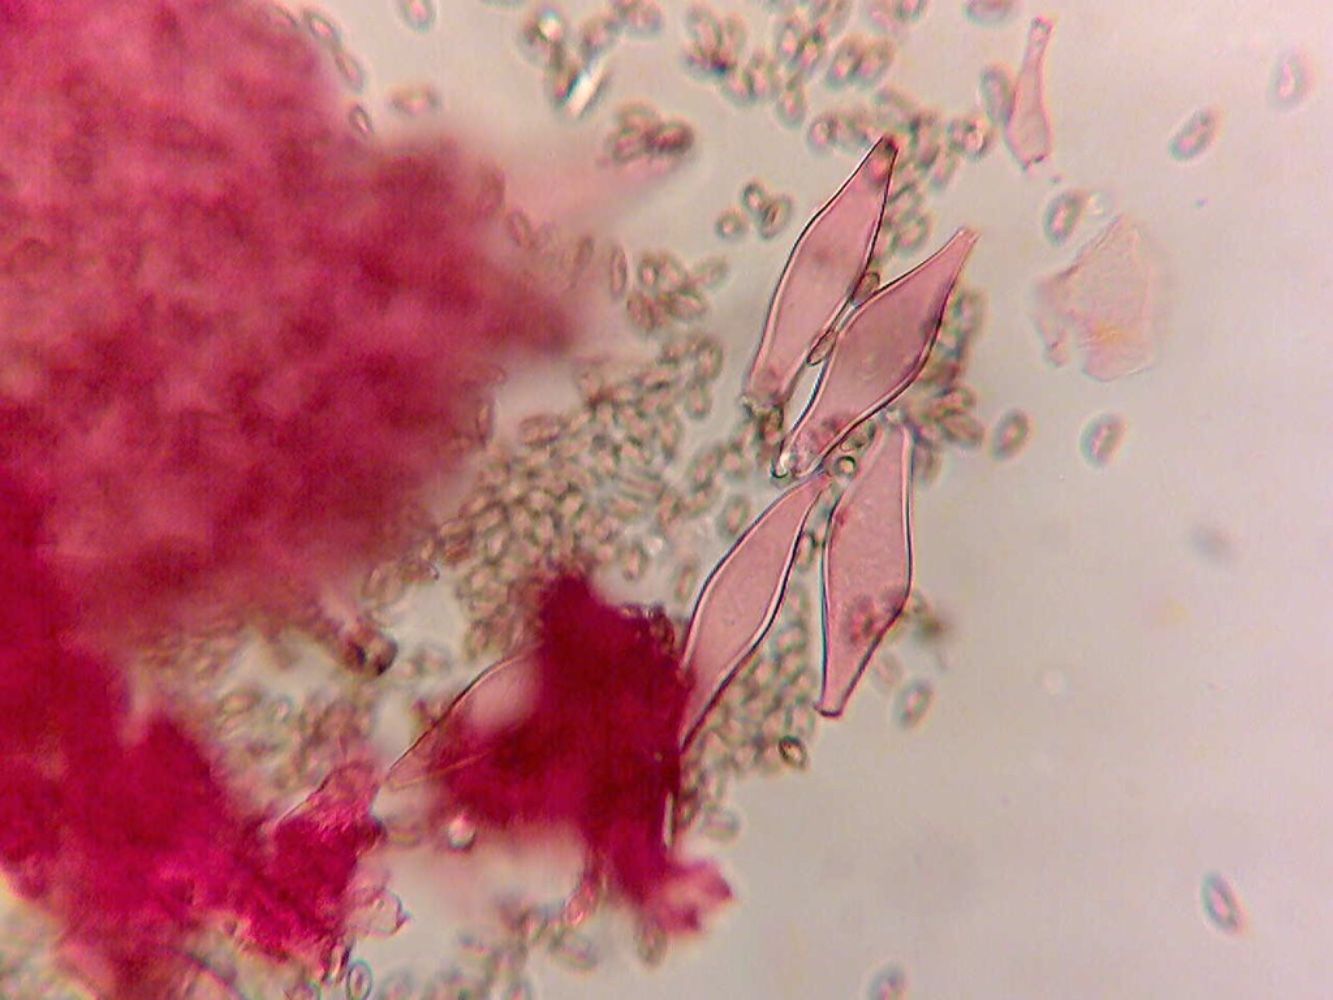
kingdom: Fungi
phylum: Basidiomycota
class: Agaricomycetes
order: Agaricales
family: Inocybaceae
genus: Inocybe
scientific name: Inocybe
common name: trævlhat
